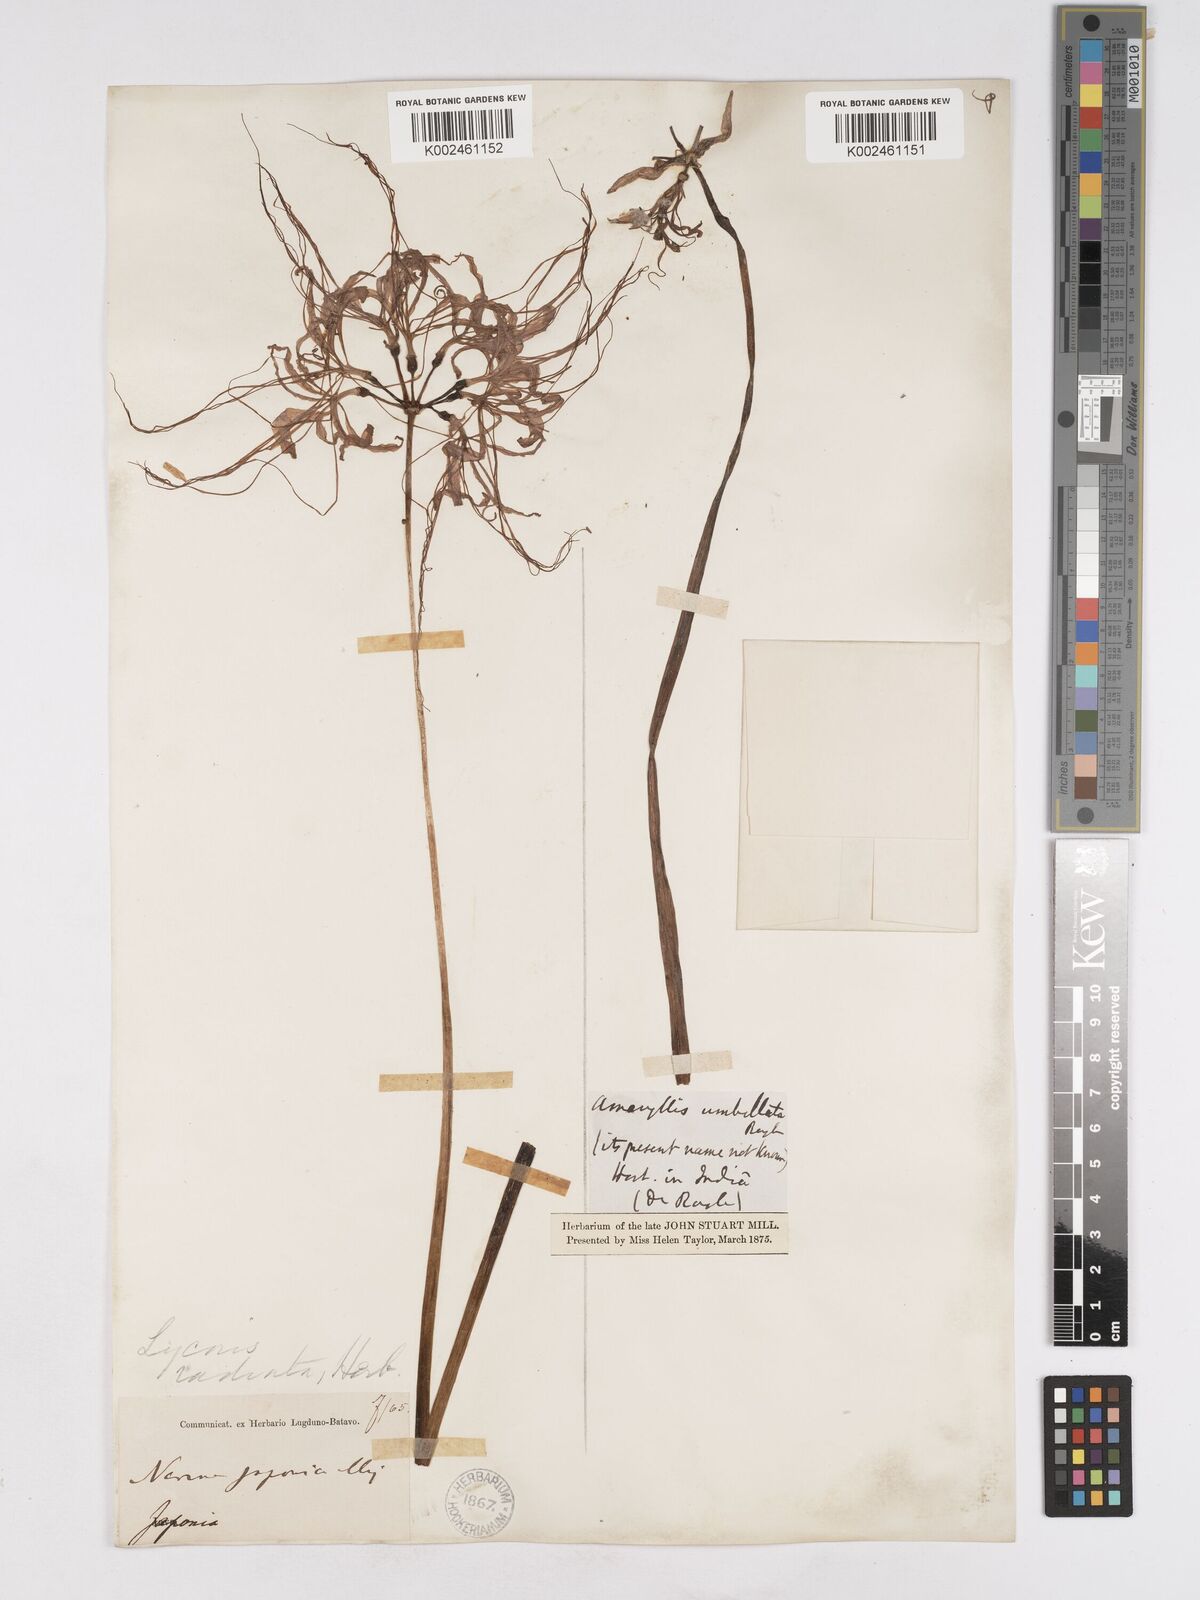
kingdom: Plantae
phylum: Tracheophyta
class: Liliopsida
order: Asparagales
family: Amaryllidaceae
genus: Lycoris
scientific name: Lycoris radiata
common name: Red spider lily
